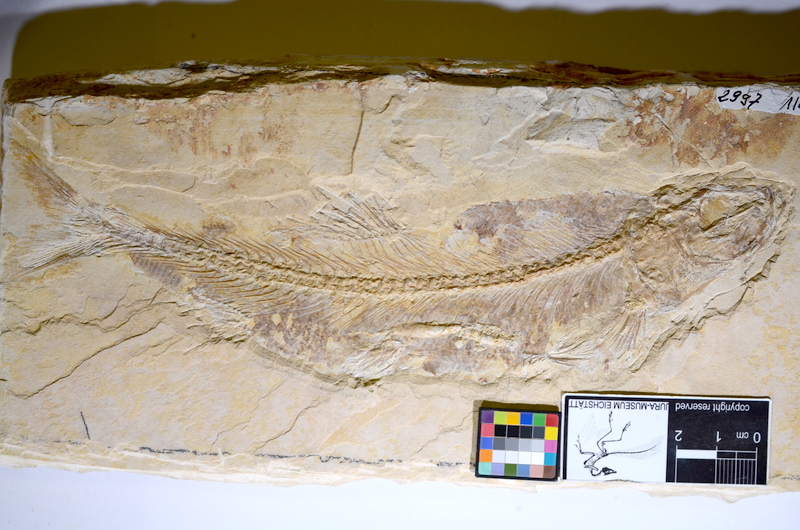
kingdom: Animalia
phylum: Chordata
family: Ascalaboidae
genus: Tharsis
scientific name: Tharsis dubius
